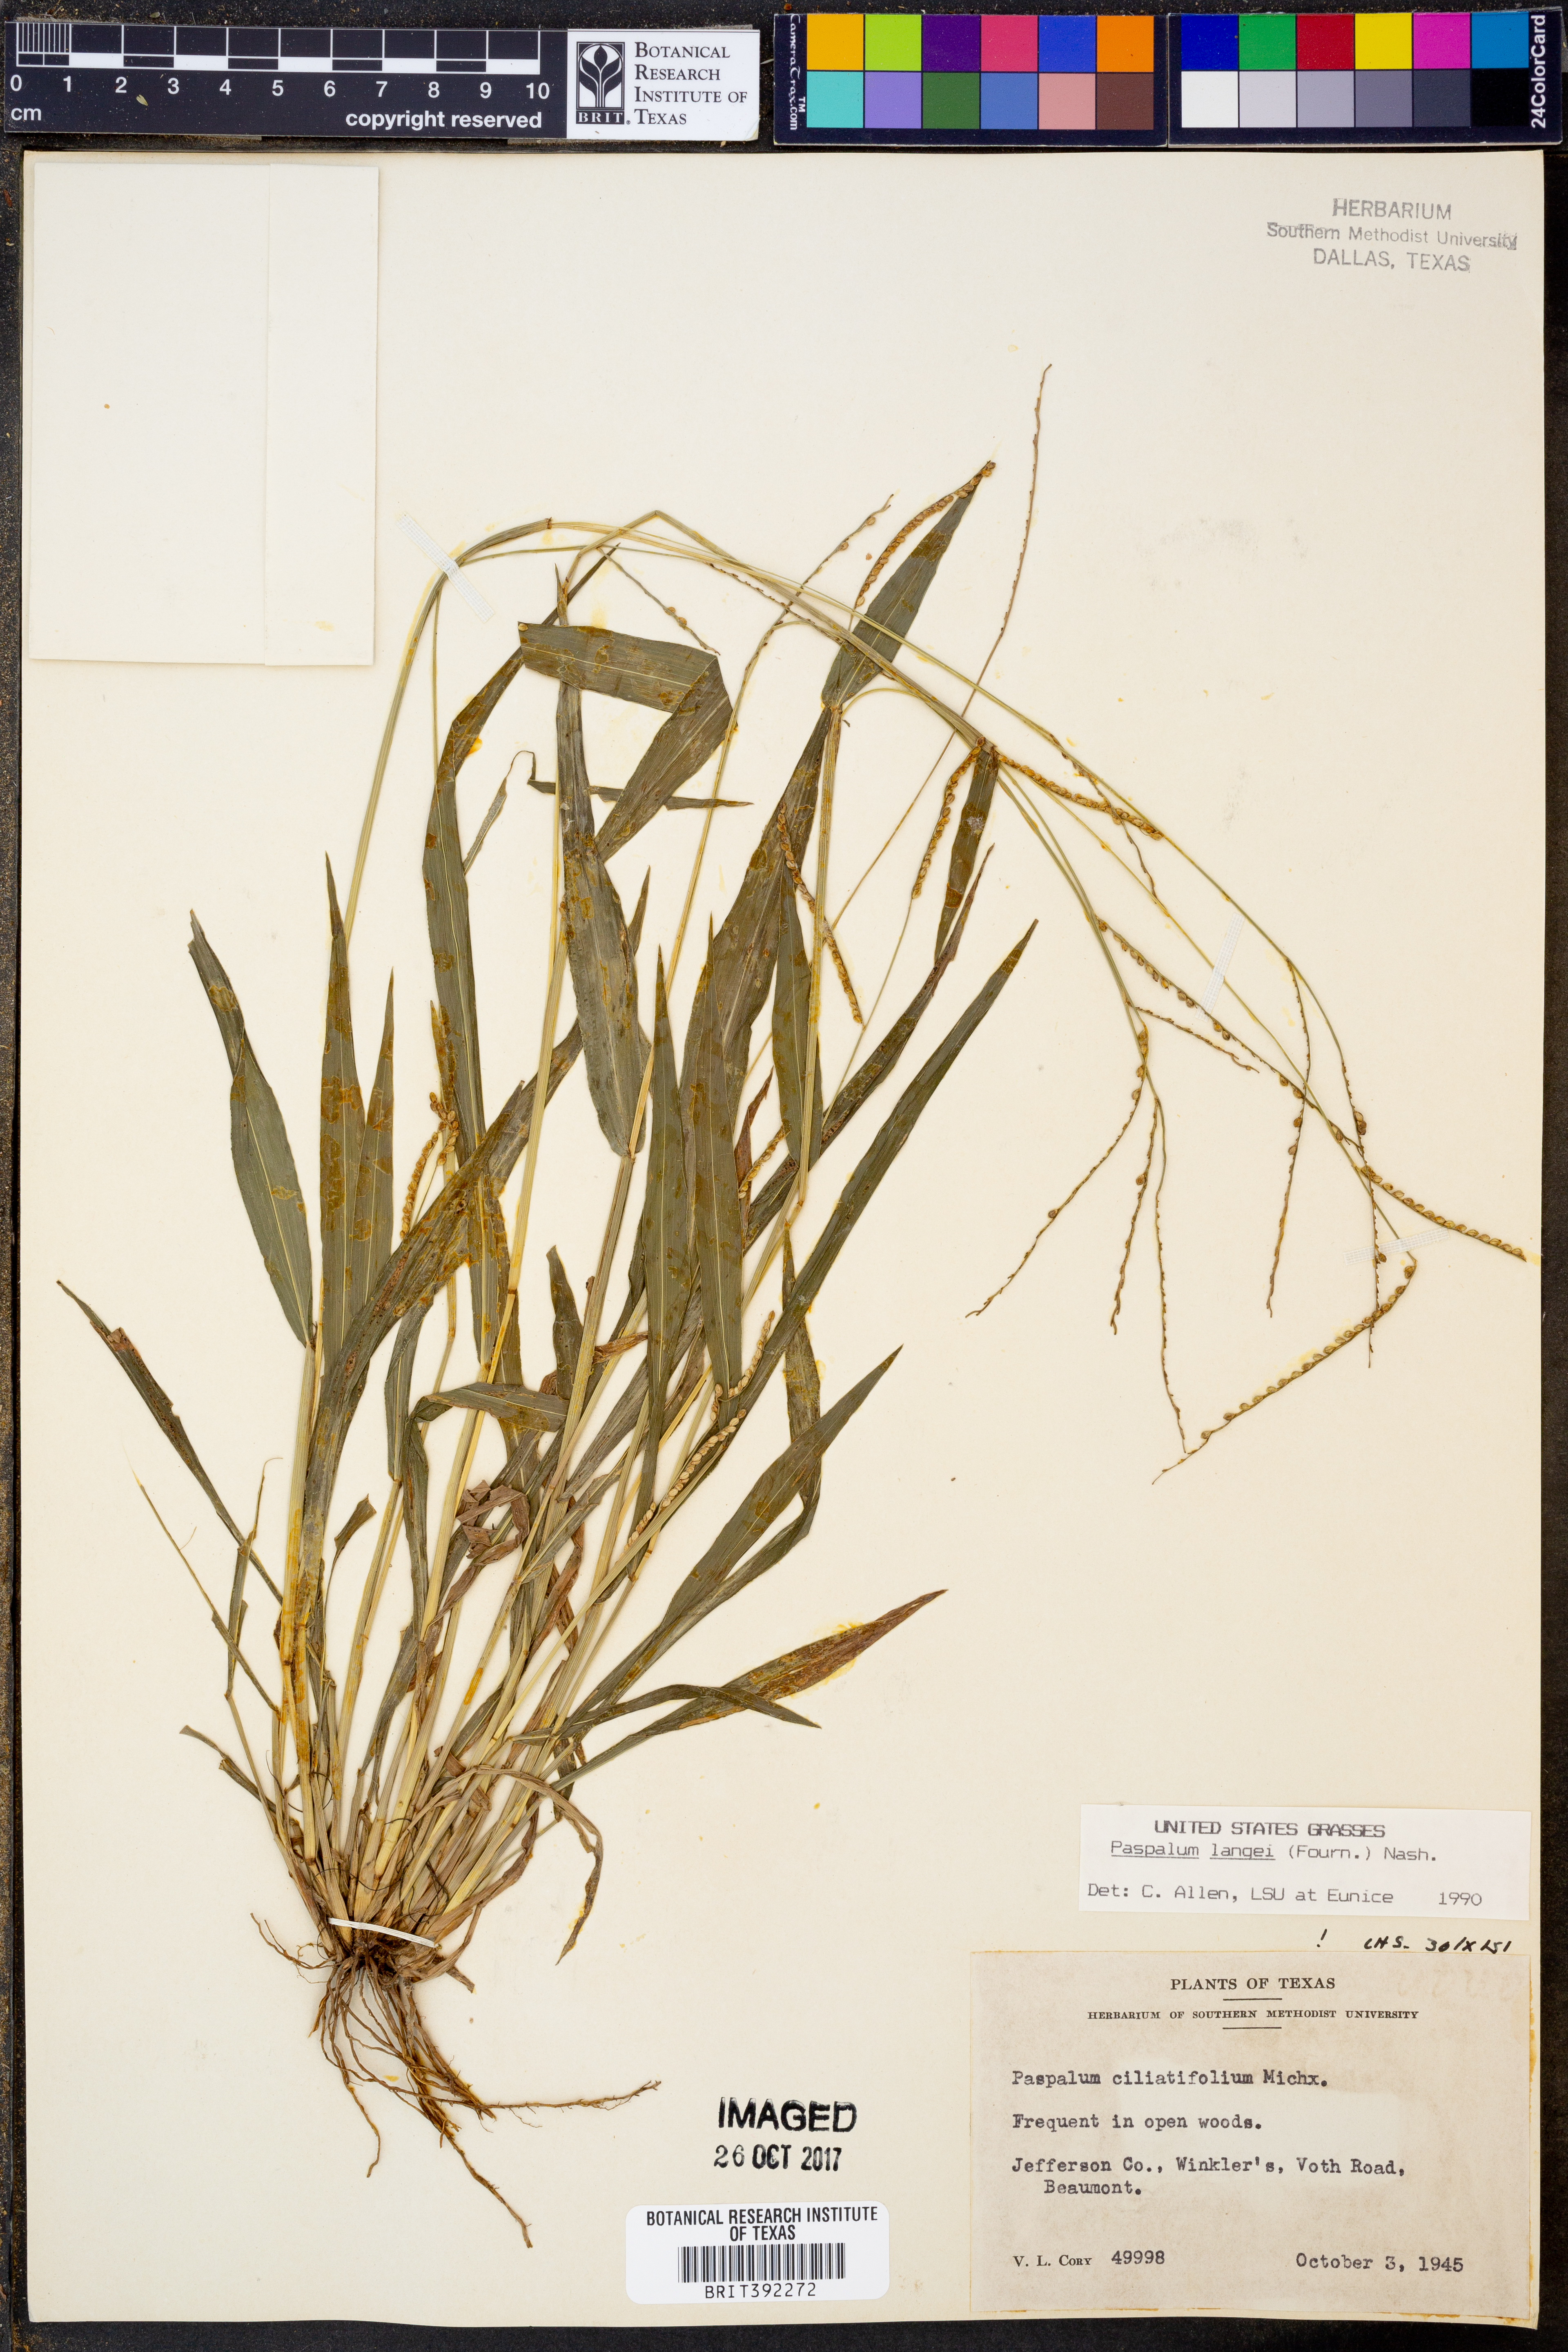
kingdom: Plantae
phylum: Tracheophyta
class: Liliopsida
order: Poales
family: Poaceae
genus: Paspalum
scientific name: Paspalum langei
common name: Rusty-seed paspalum
